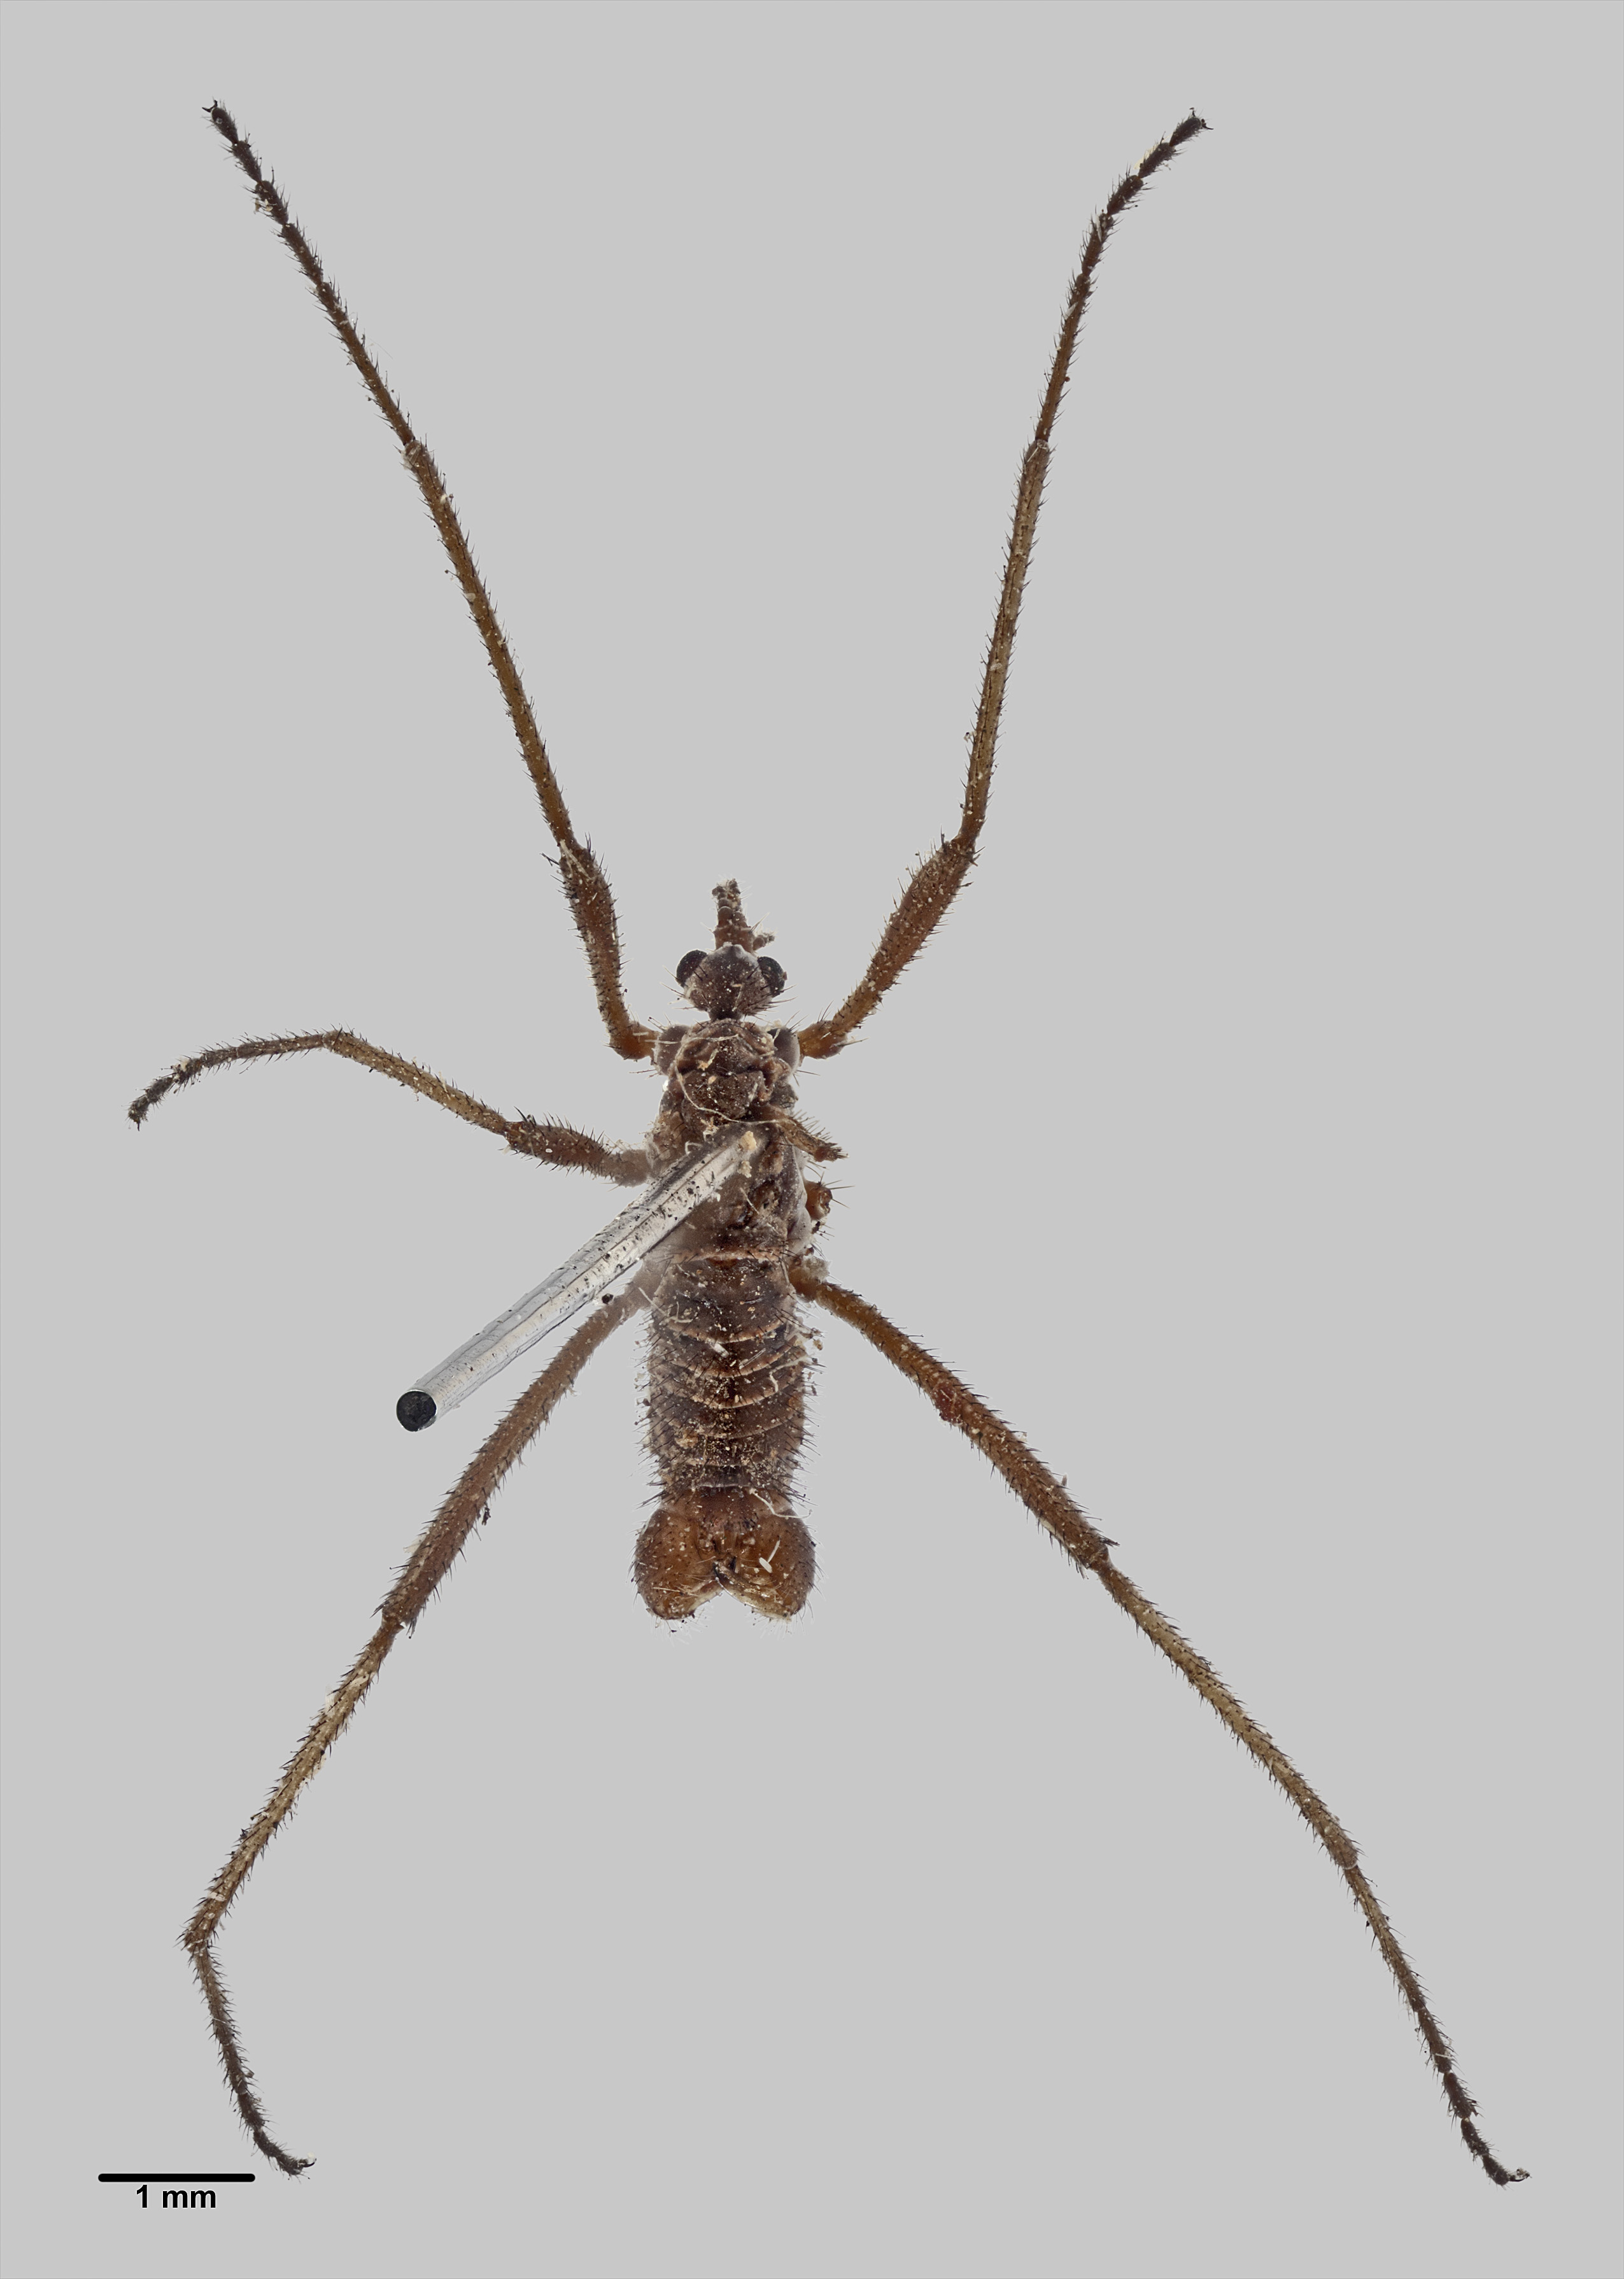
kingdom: Animalia
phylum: Arthropoda
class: Insecta
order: Diptera
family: Limoniidae
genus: Symplecta
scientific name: Symplecta brachyptera
